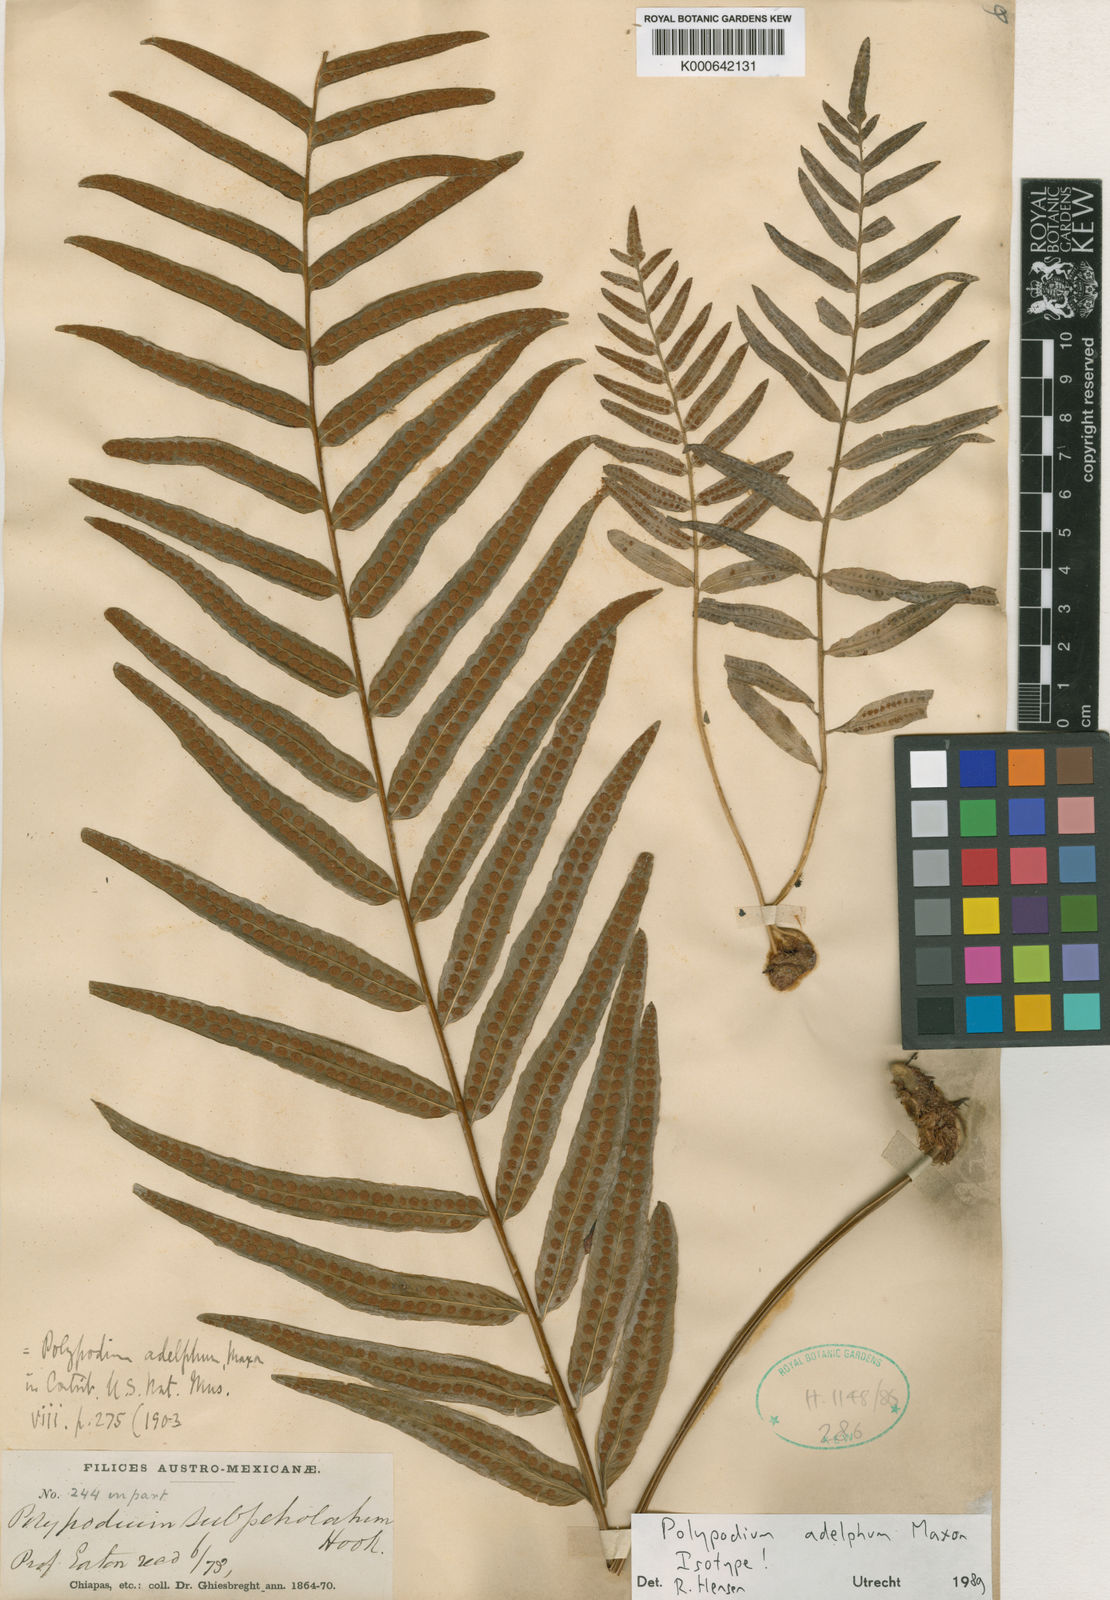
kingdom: Plantae
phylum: Tracheophyta
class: Polypodiopsida
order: Polypodiales
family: Polypodiaceae
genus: Polypodium
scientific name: Polypodium subpetiolatum
